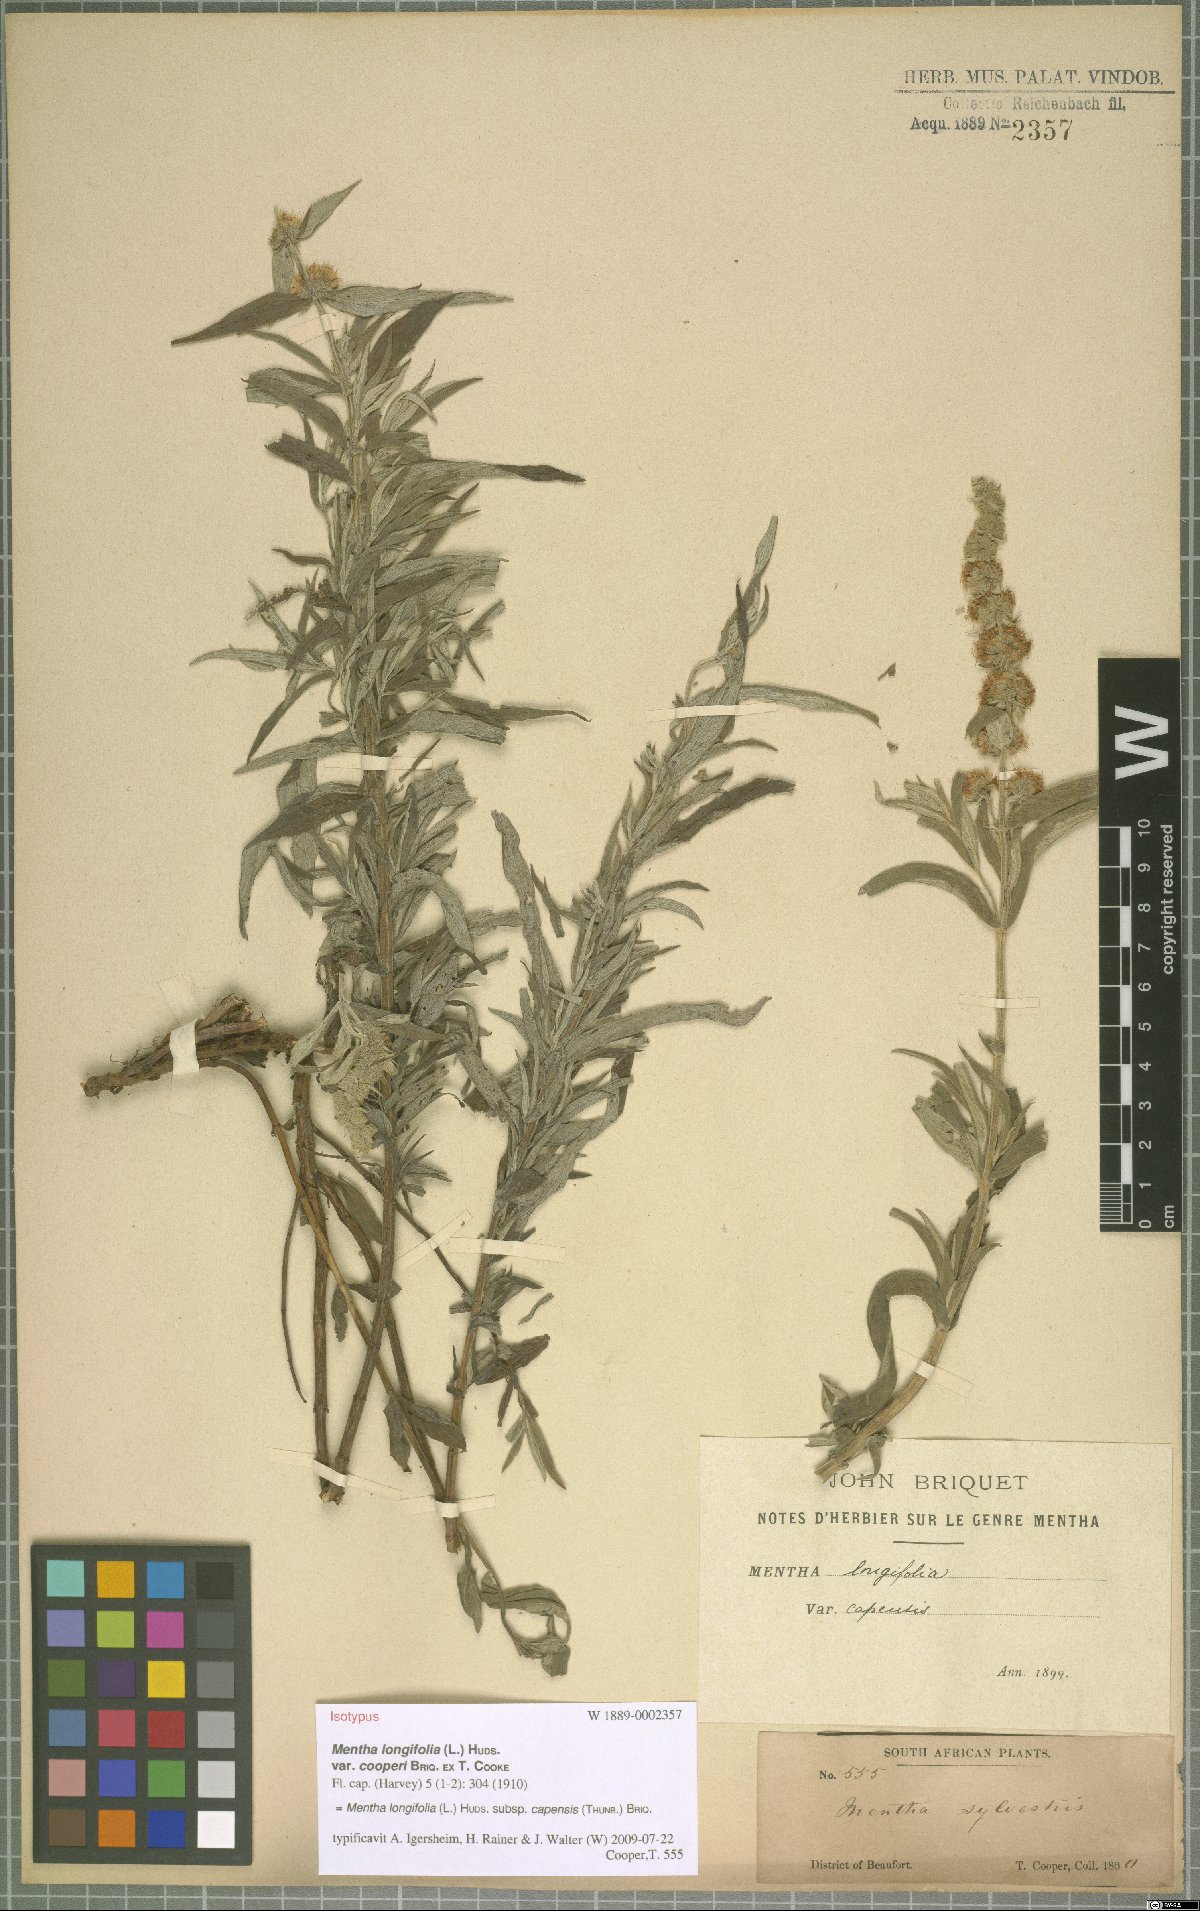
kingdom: Plantae
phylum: Tracheophyta
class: Magnoliopsida
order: Lamiales
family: Lamiaceae
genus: Mentha
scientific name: Mentha longifolia
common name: Horse mint
